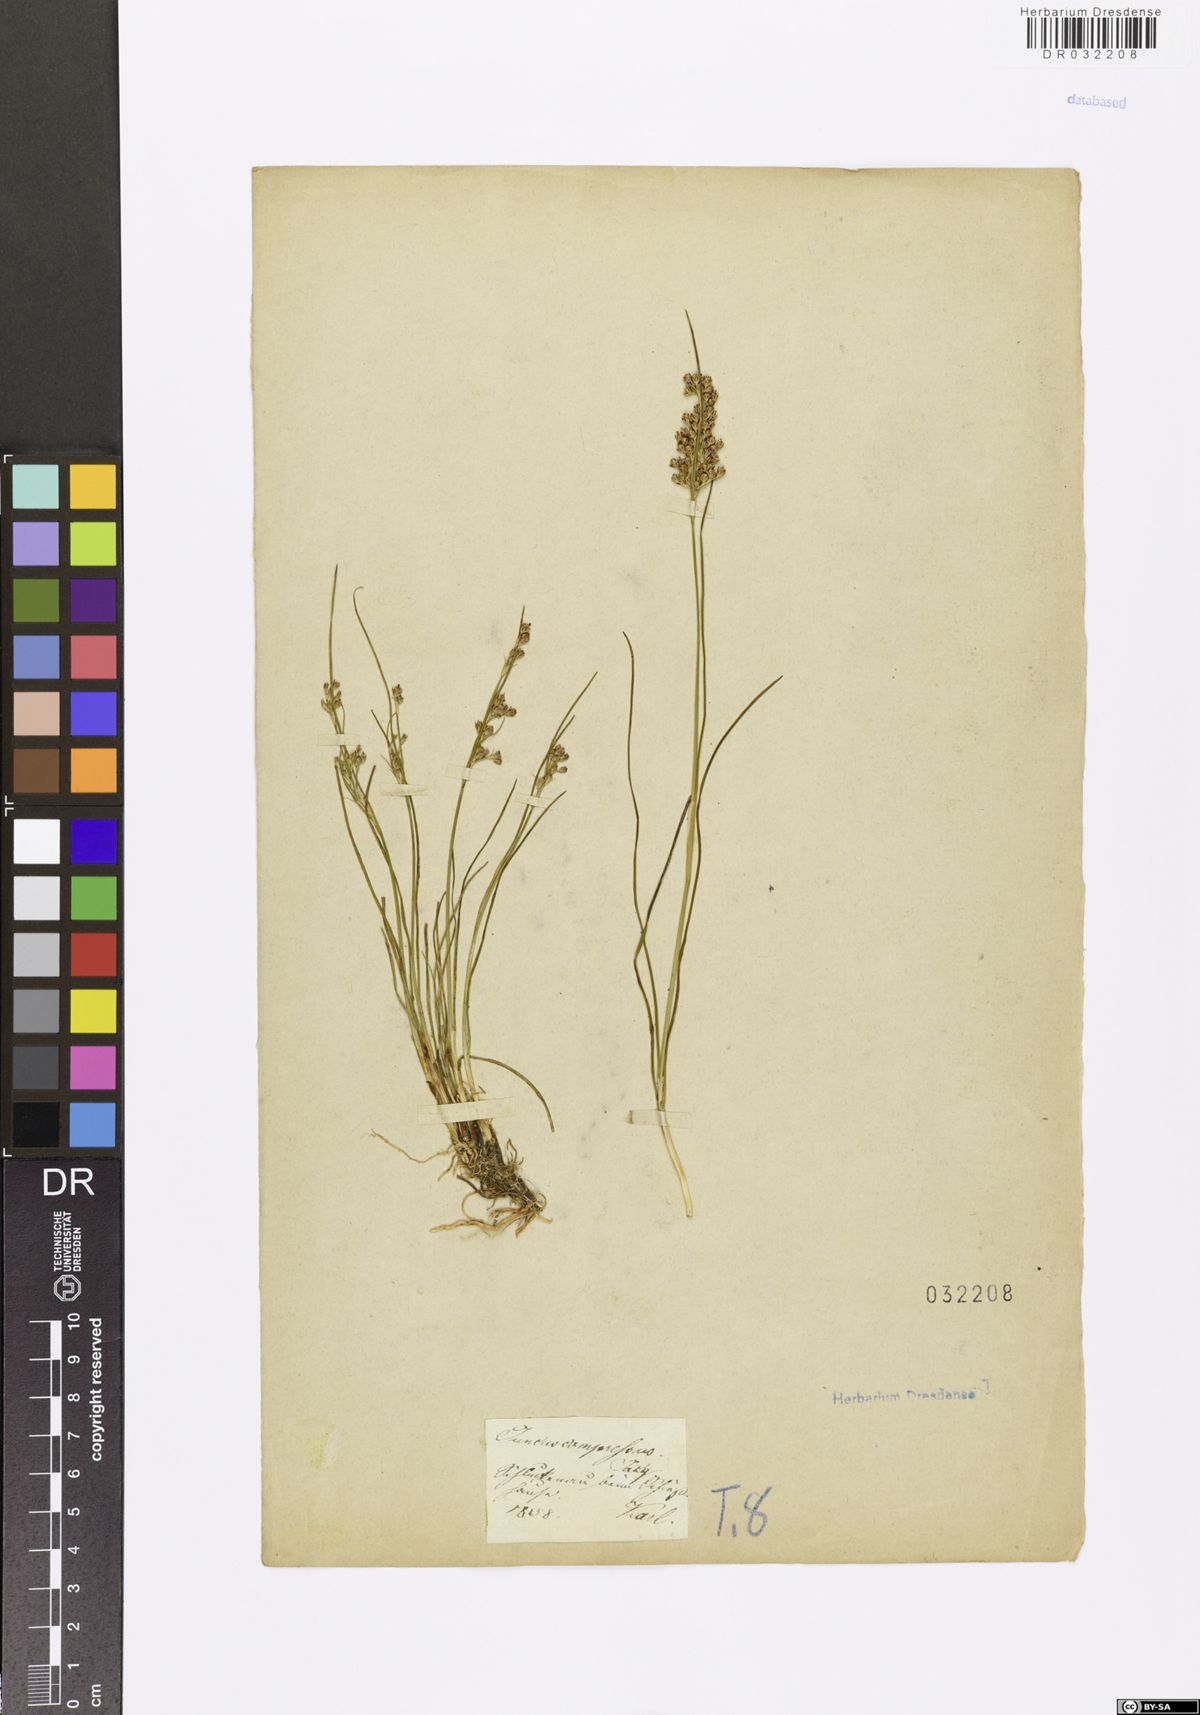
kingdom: Plantae
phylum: Tracheophyta
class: Liliopsida
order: Poales
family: Juncaceae
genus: Juncus
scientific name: Juncus compressus
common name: Round-fruited rush
